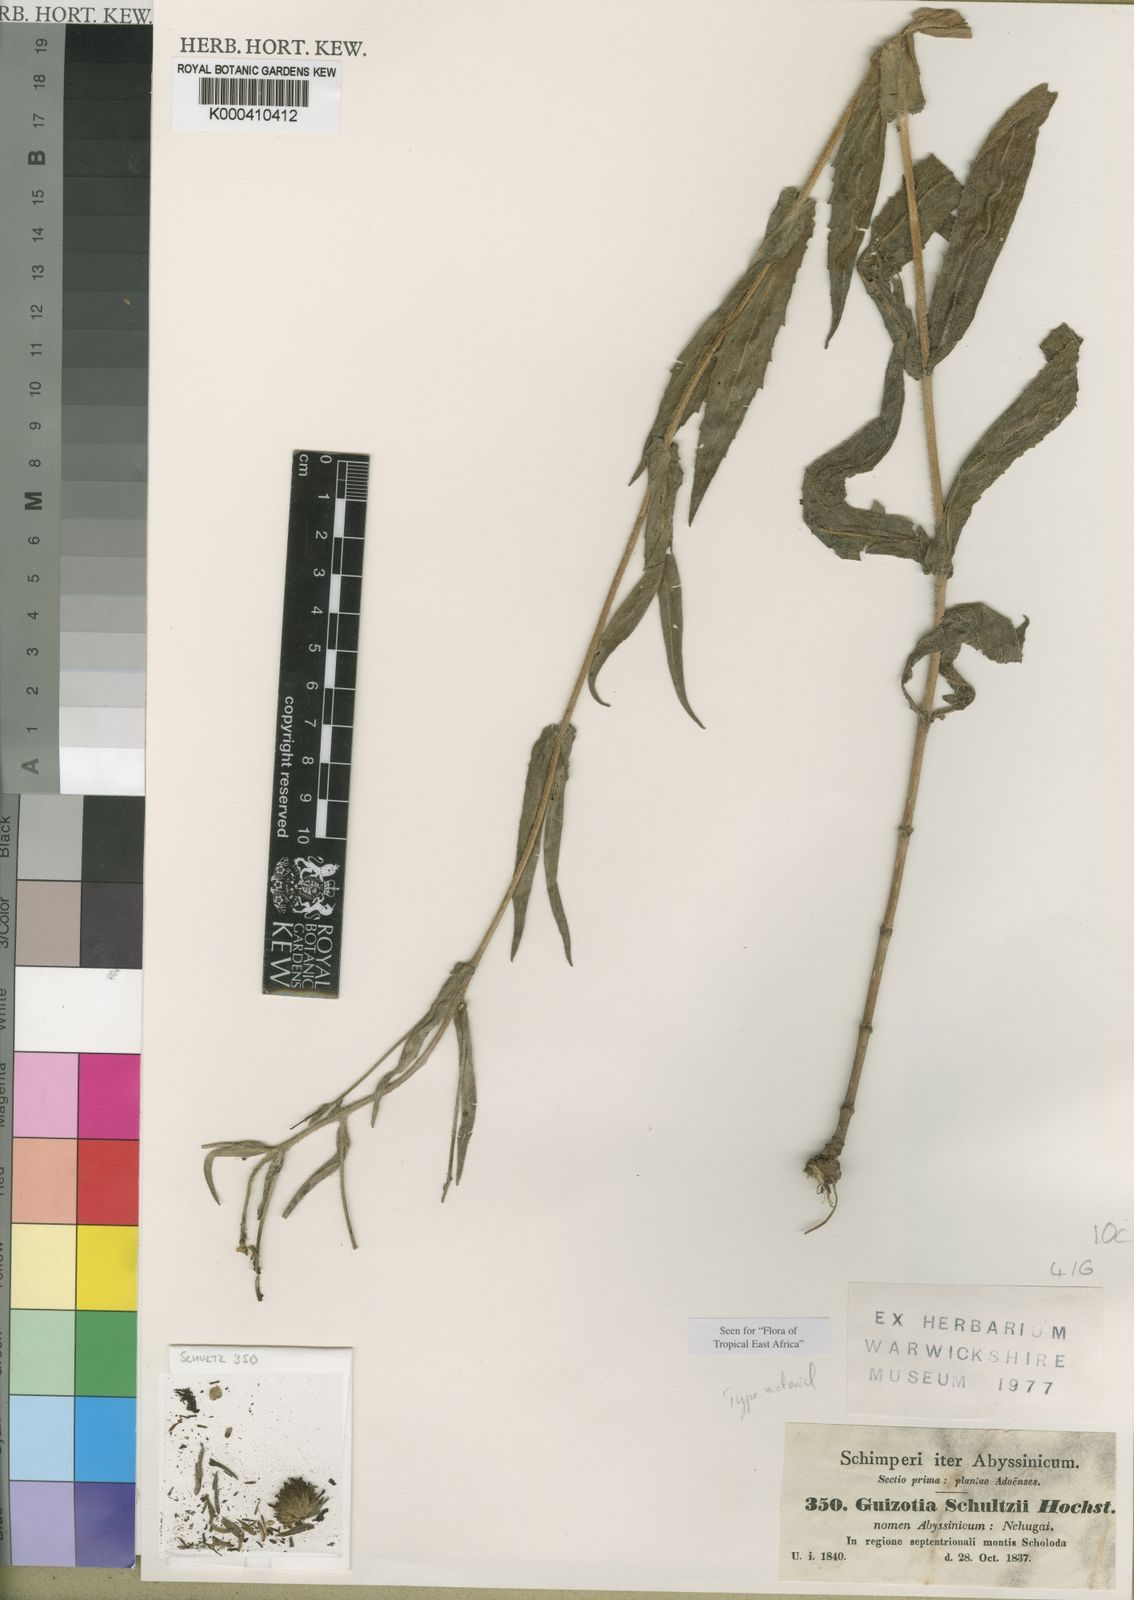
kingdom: Plantae
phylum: Tracheophyta
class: Magnoliopsida
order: Asterales
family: Asteraceae
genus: Guizotia
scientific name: Guizotia scabra
